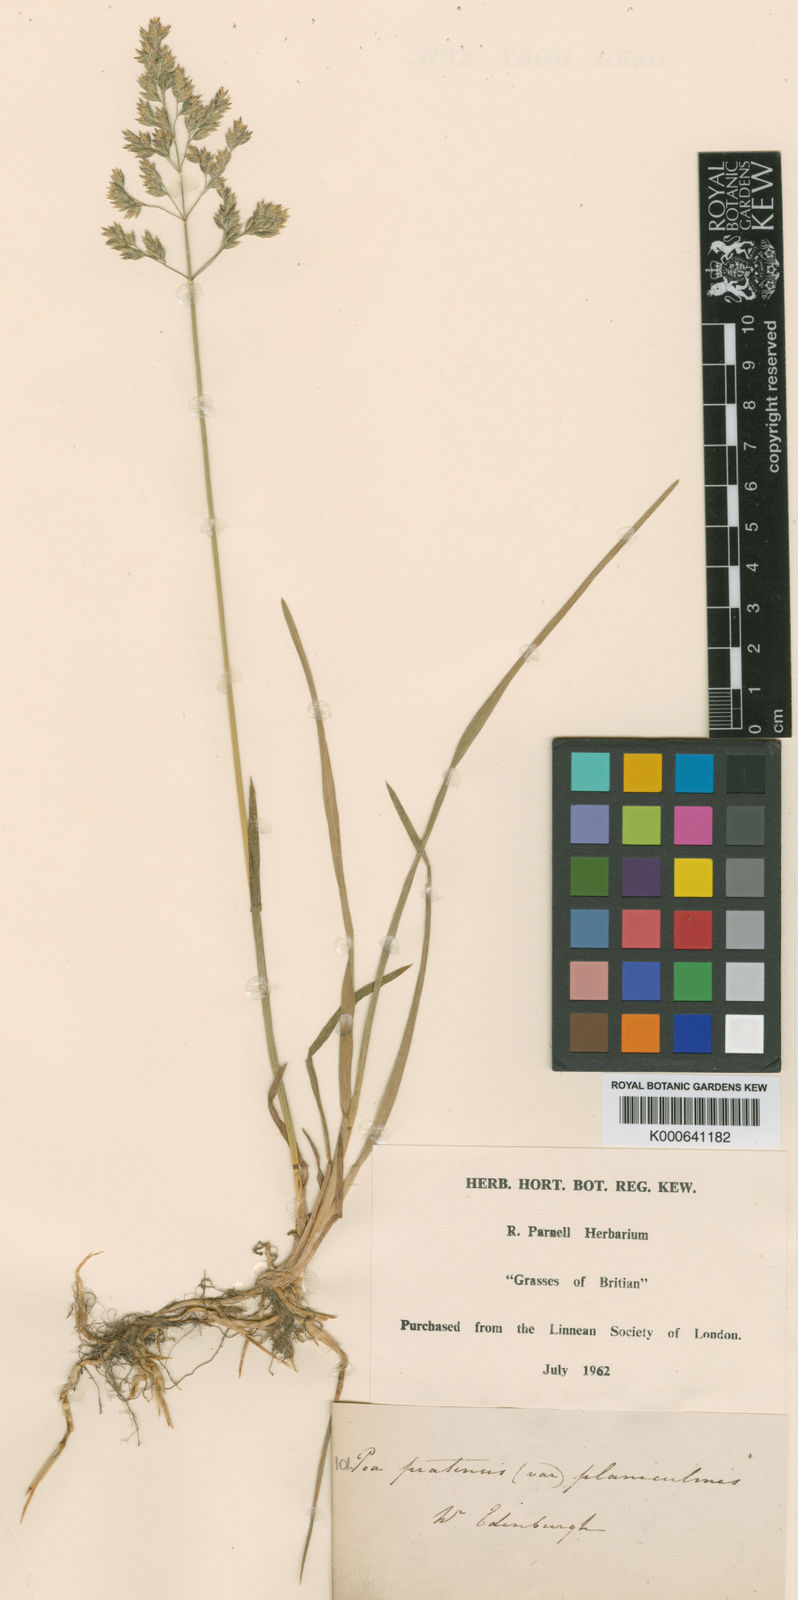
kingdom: Plantae
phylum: Tracheophyta
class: Liliopsida
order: Poales
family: Poaceae
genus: Poa
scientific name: Poa pratensis
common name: Kentucky bluegrass
